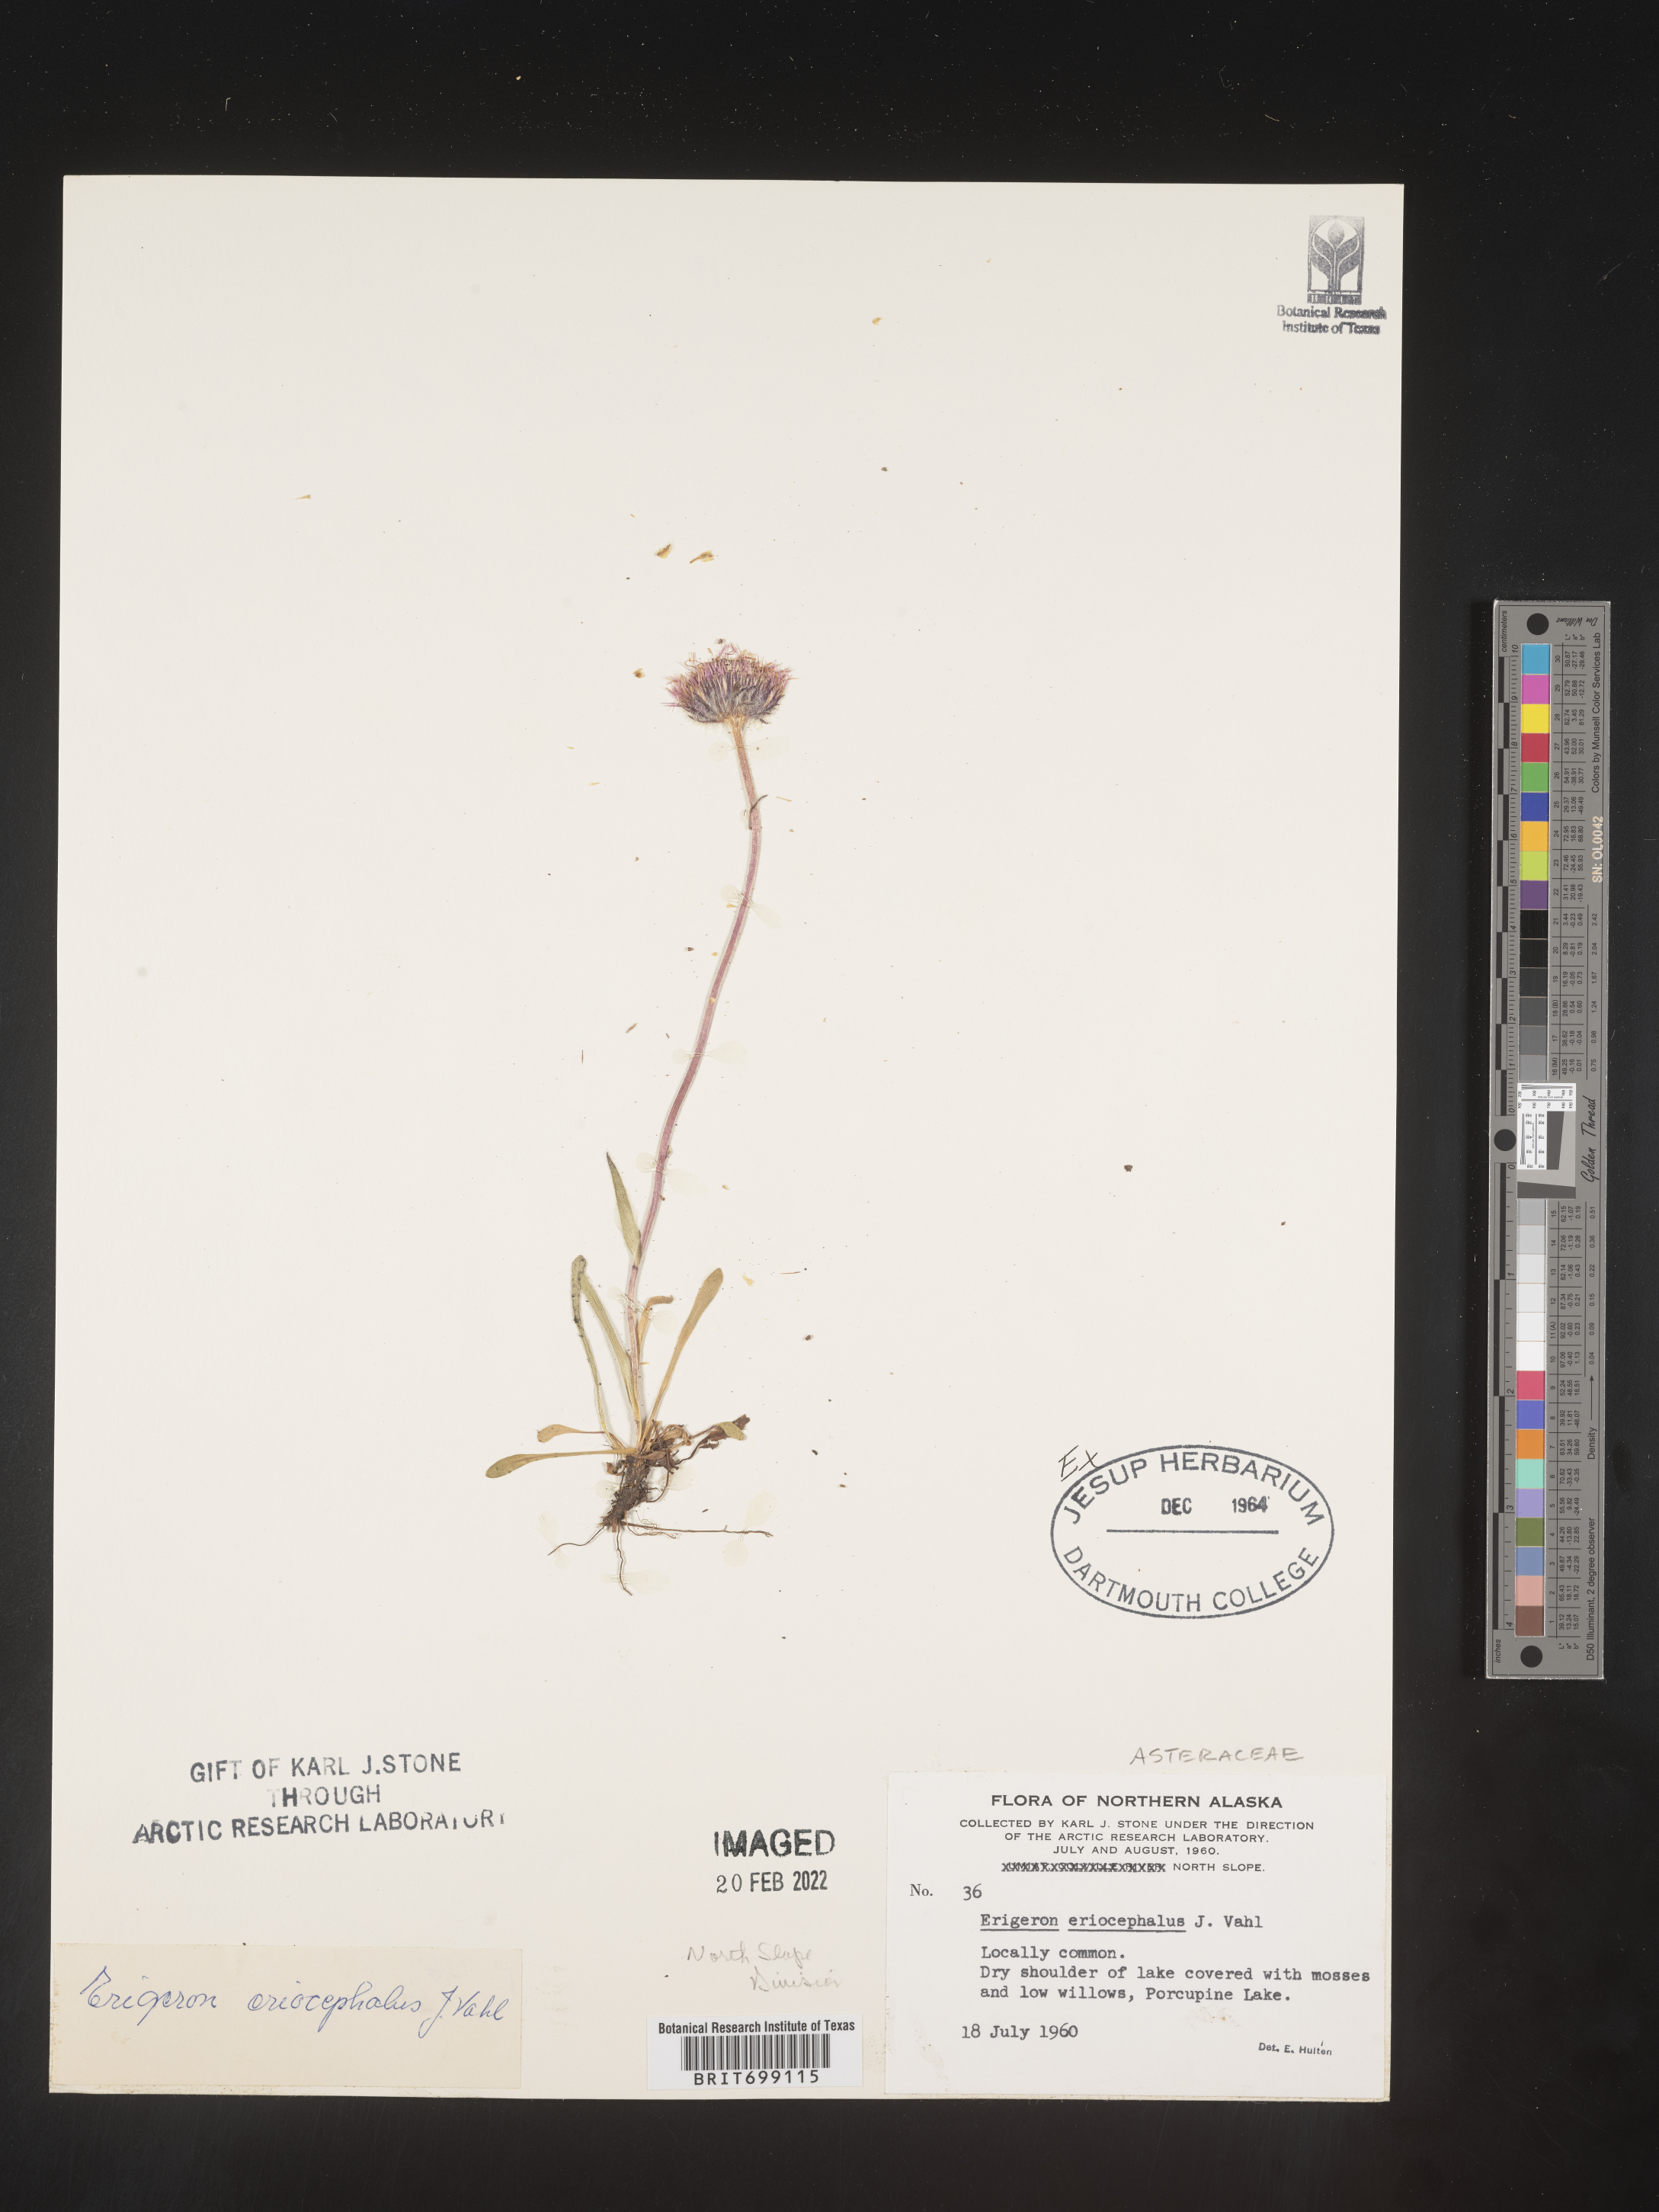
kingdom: Plantae
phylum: Tracheophyta
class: Magnoliopsida
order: Asterales
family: Asteraceae
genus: Erigeron
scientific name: Erigeron salmonensis
